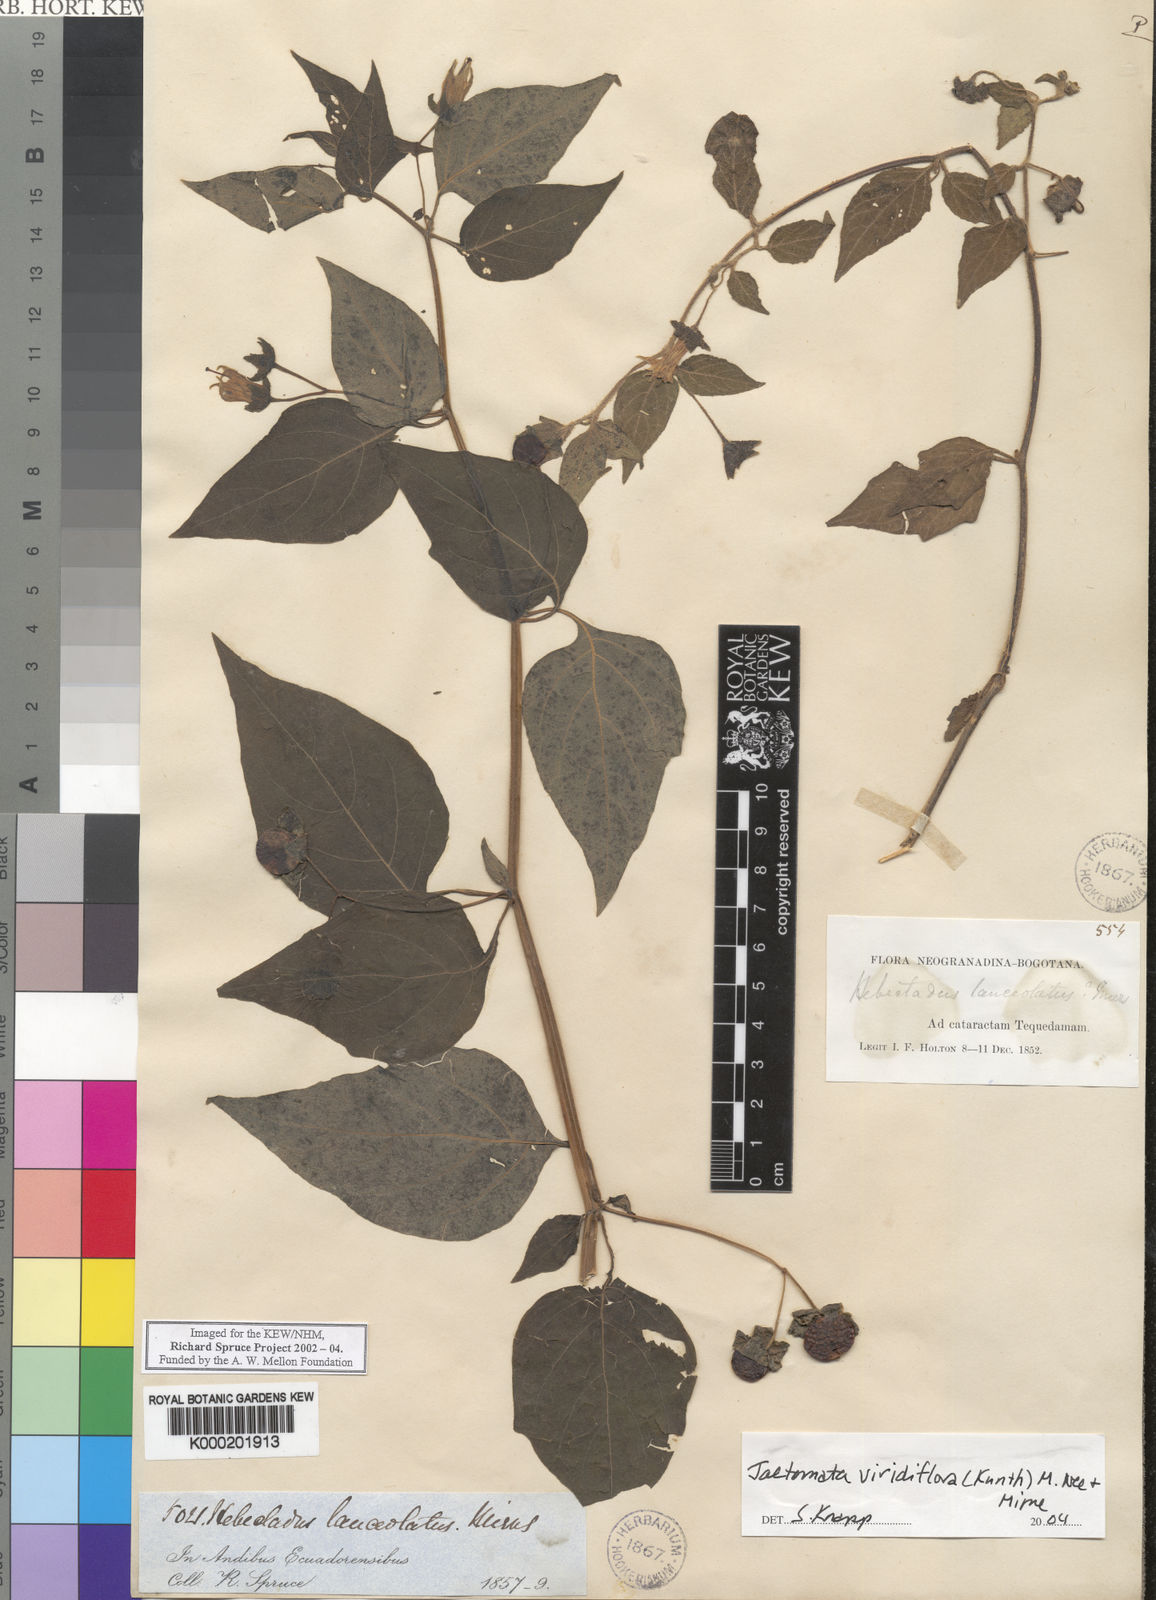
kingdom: Plantae
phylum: Tracheophyta
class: Magnoliopsida
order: Solanales
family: Solanaceae
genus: Jaltomata
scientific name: Jaltomata viridiflora
